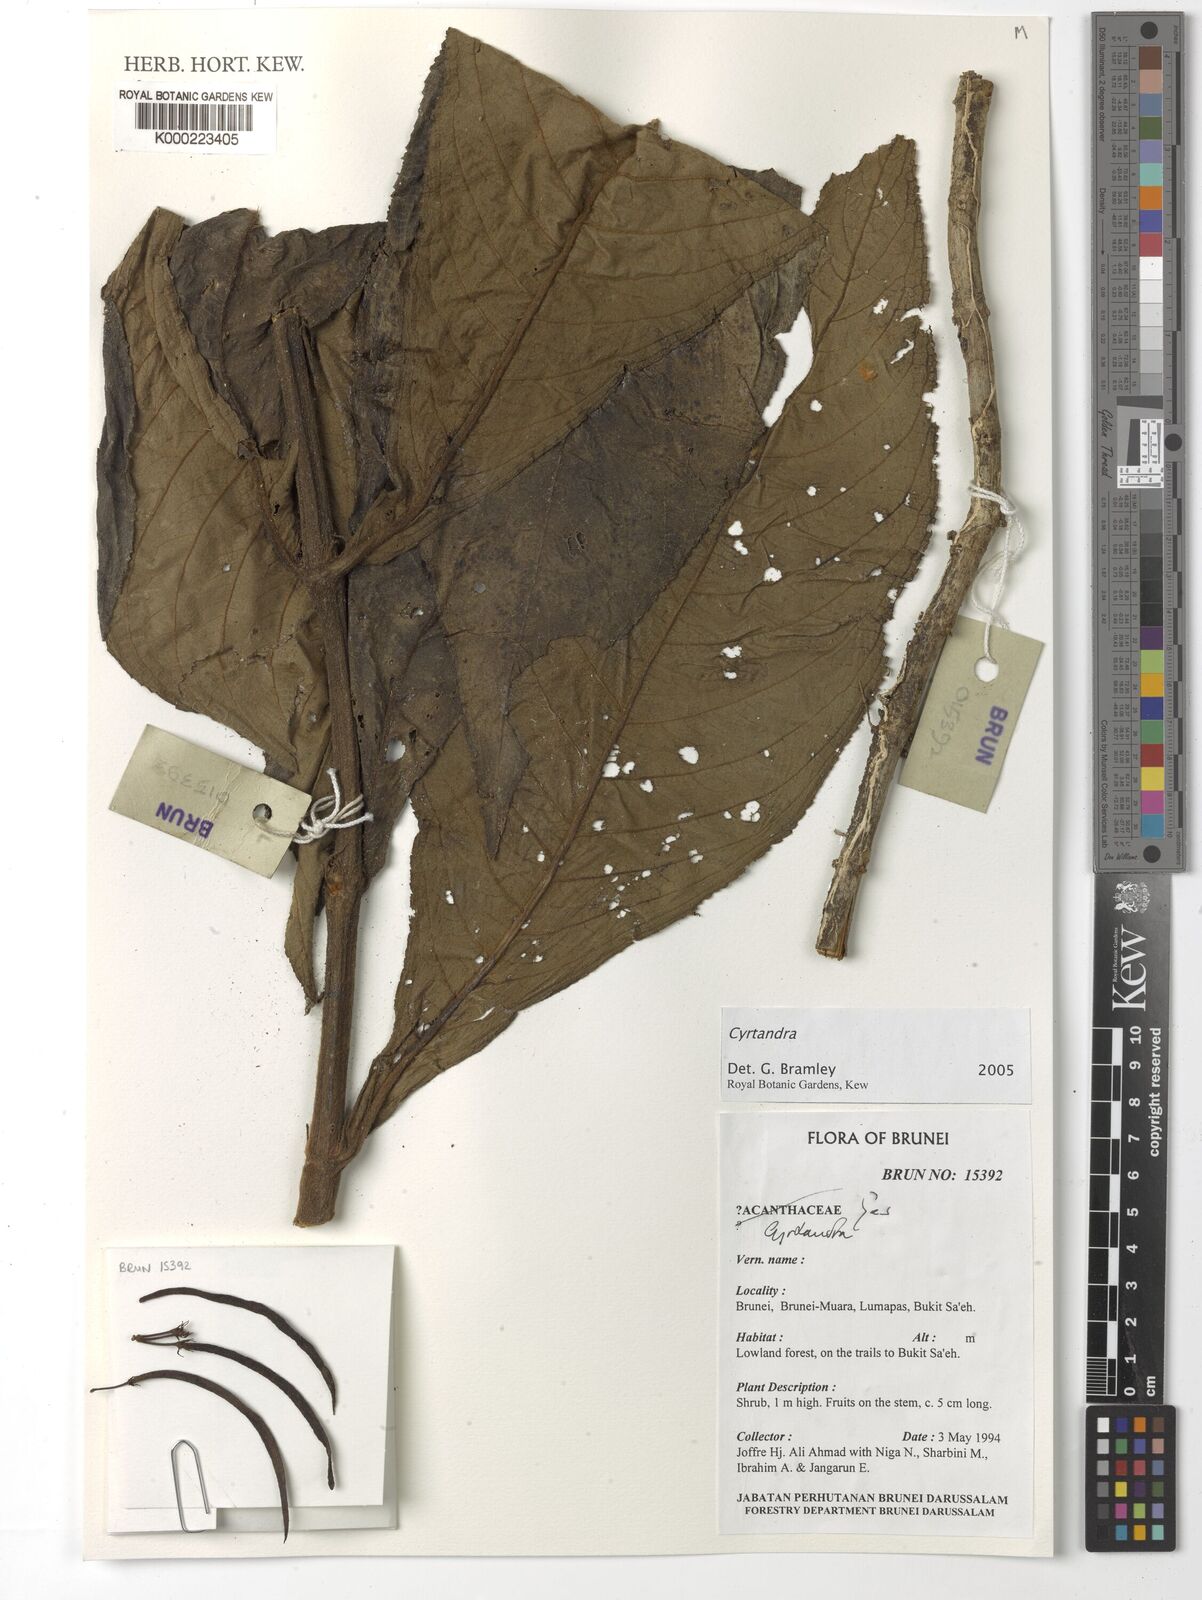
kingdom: Plantae
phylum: Tracheophyta
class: Magnoliopsida
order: Lamiales
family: Gesneriaceae
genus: Cyrtandra
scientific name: Cyrtandra
